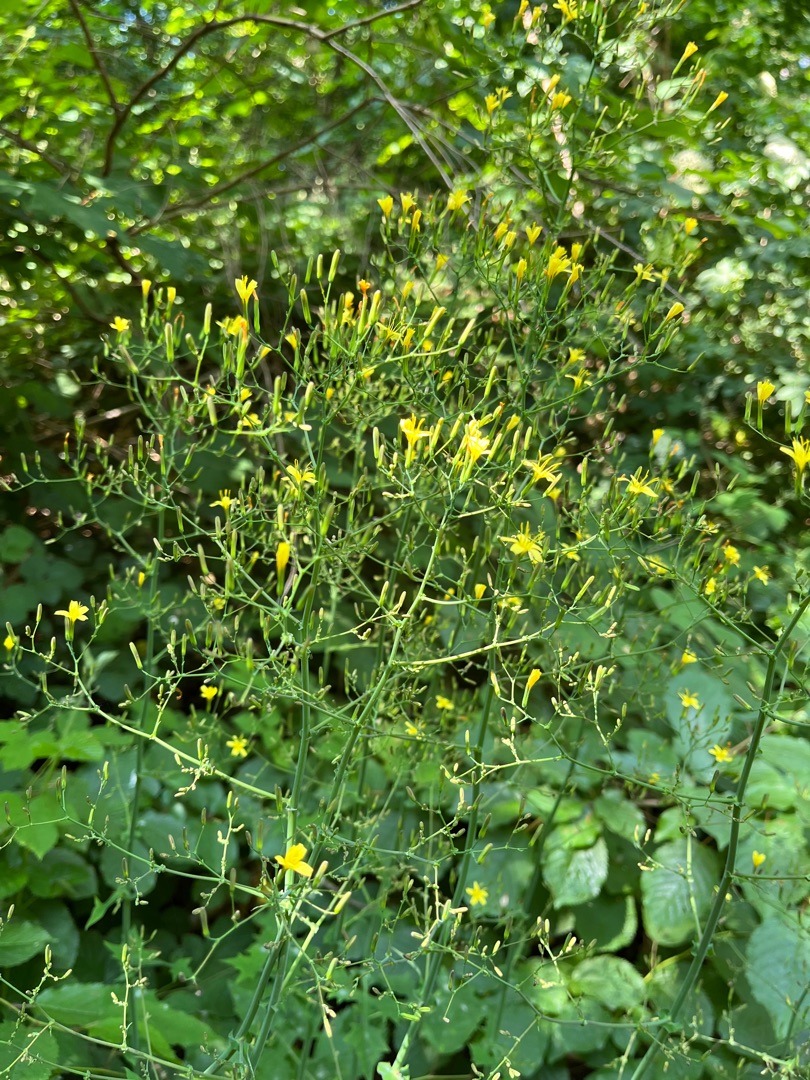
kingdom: Plantae
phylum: Tracheophyta
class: Magnoliopsida
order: Asterales
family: Asteraceae
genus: Mycelis
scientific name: Mycelis muralis
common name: Skov-salat
